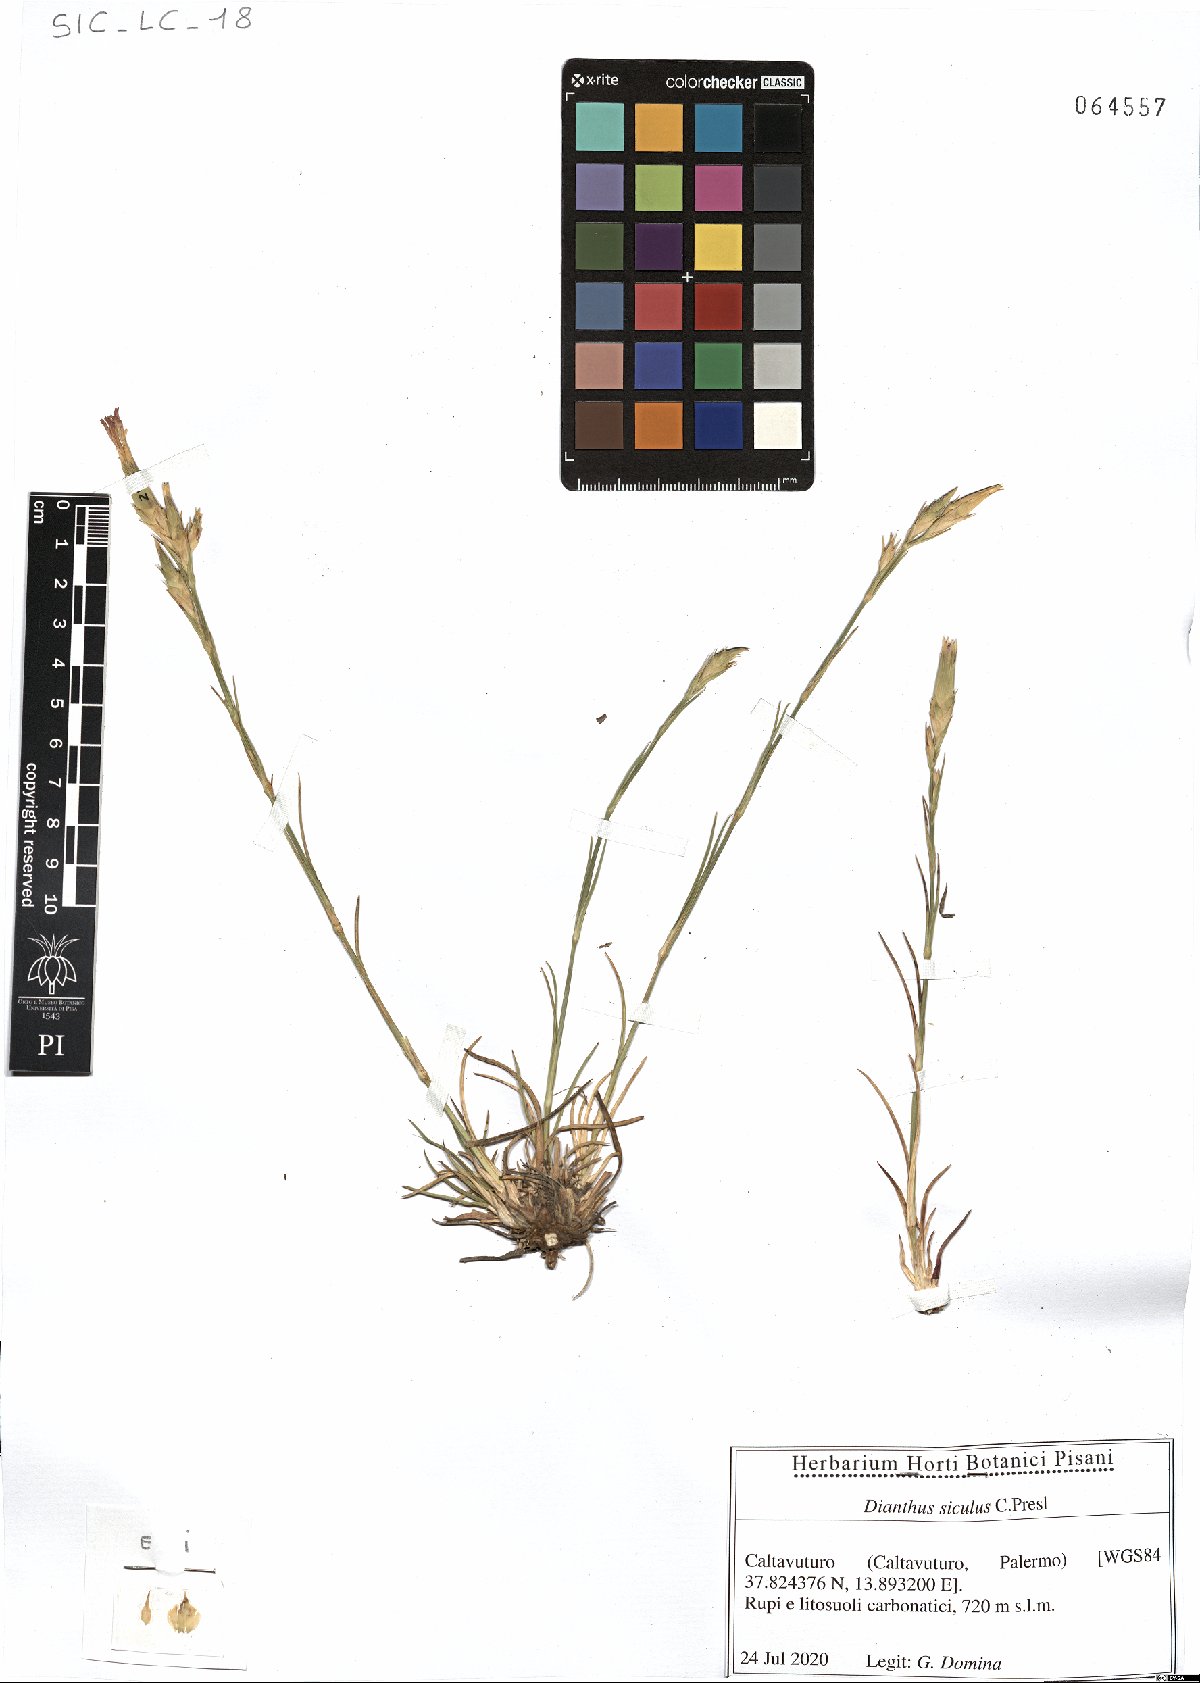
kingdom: Plantae
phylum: Tracheophyta
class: Magnoliopsida
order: Caryophyllales
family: Caryophyllaceae
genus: Dianthus
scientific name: Dianthus siculus
